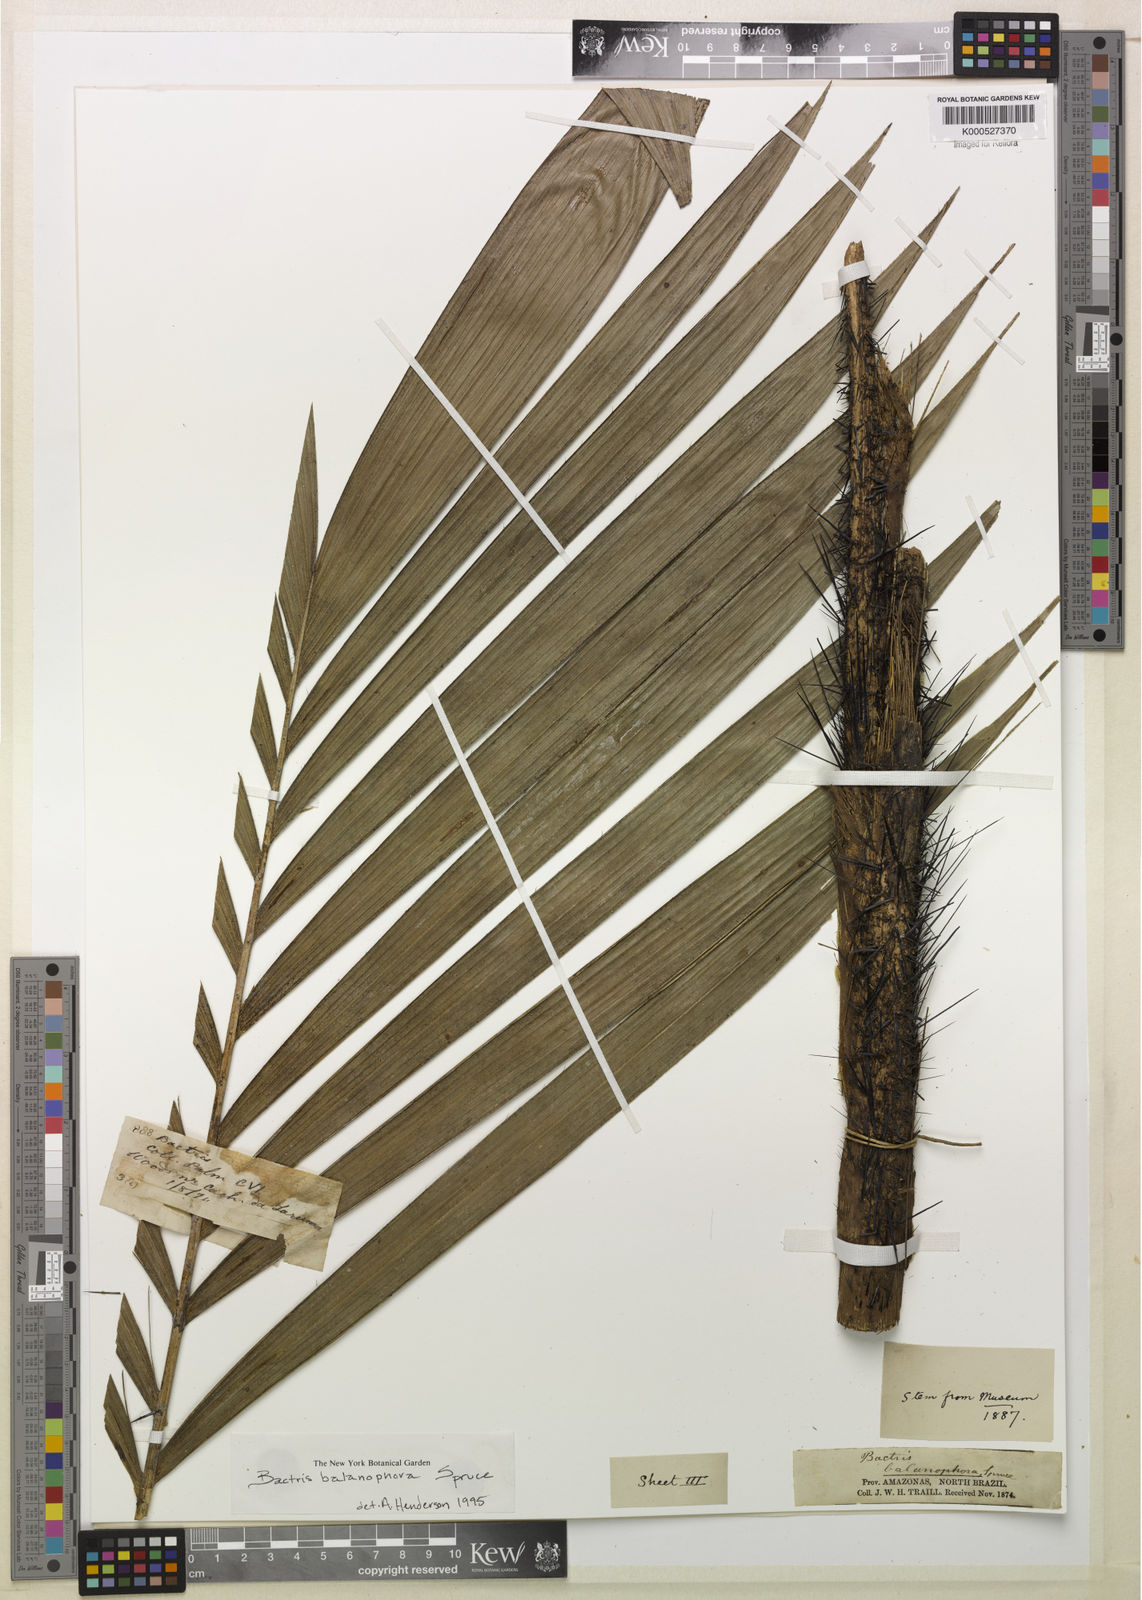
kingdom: Plantae
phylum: Tracheophyta
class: Liliopsida
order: Arecales
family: Arecaceae
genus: Bactris
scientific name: Bactris balanophora
